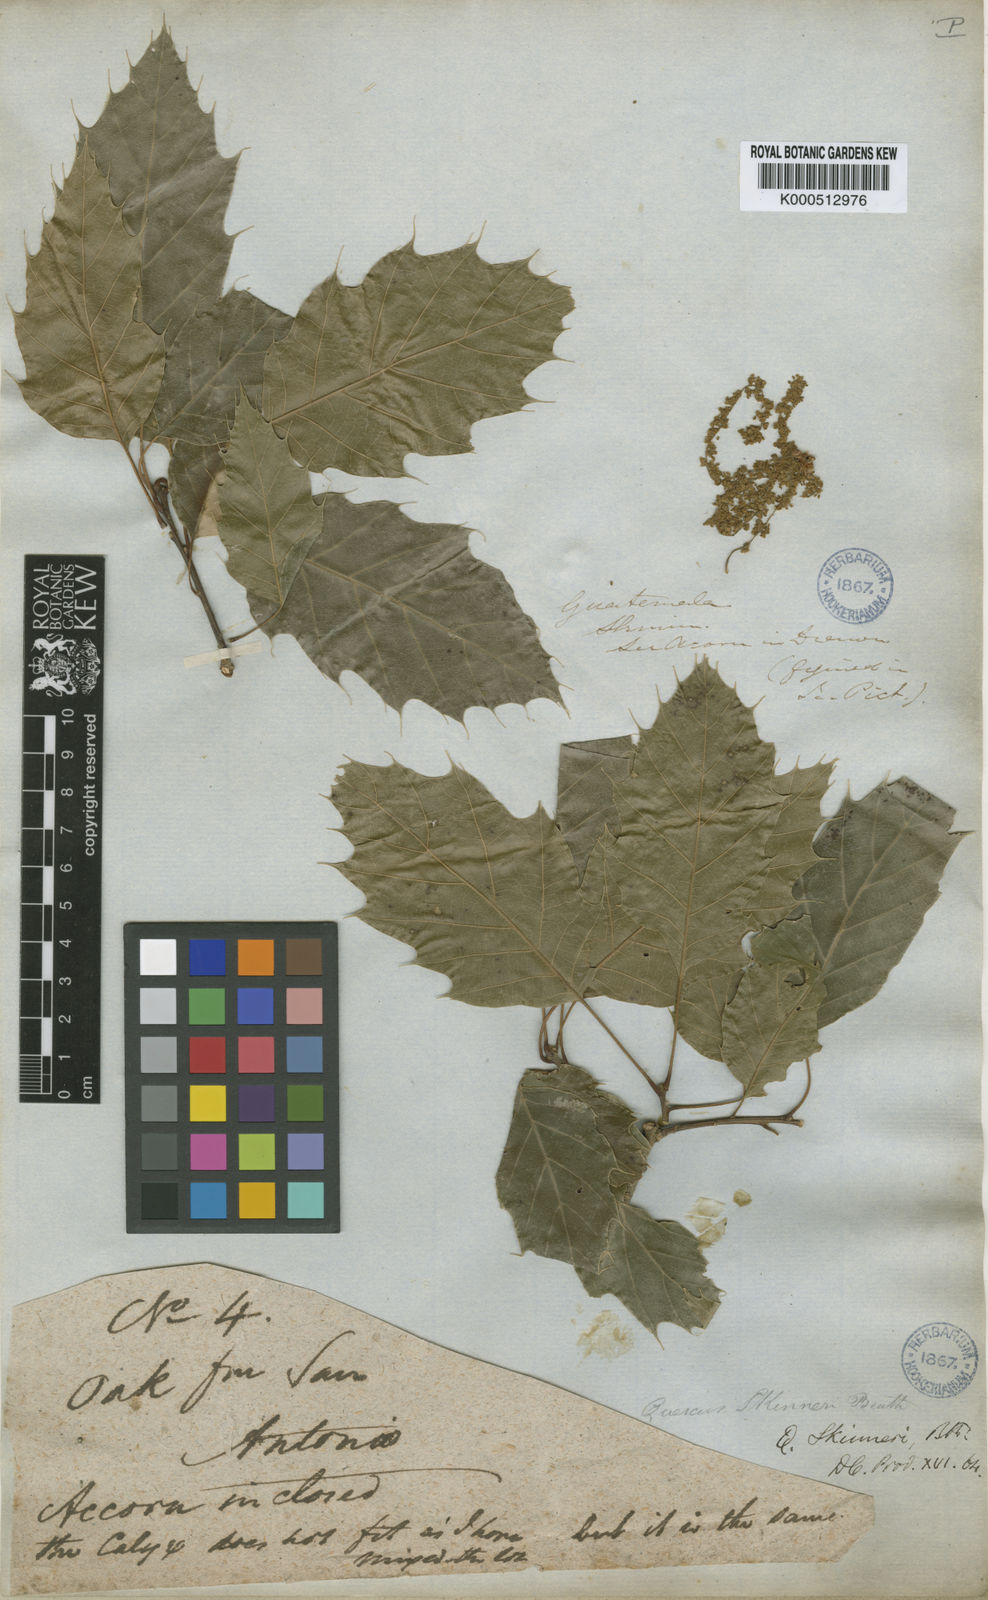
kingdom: Plantae
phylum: Tracheophyta
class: Magnoliopsida
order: Fagales
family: Fagaceae
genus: Quercus
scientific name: Quercus skinneri
